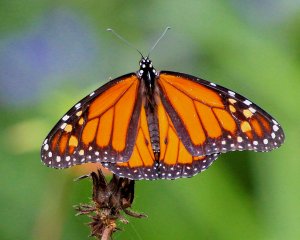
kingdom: Animalia
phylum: Arthropoda
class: Insecta
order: Lepidoptera
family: Nymphalidae
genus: Danaus
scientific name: Danaus plexippus
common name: Monarch
